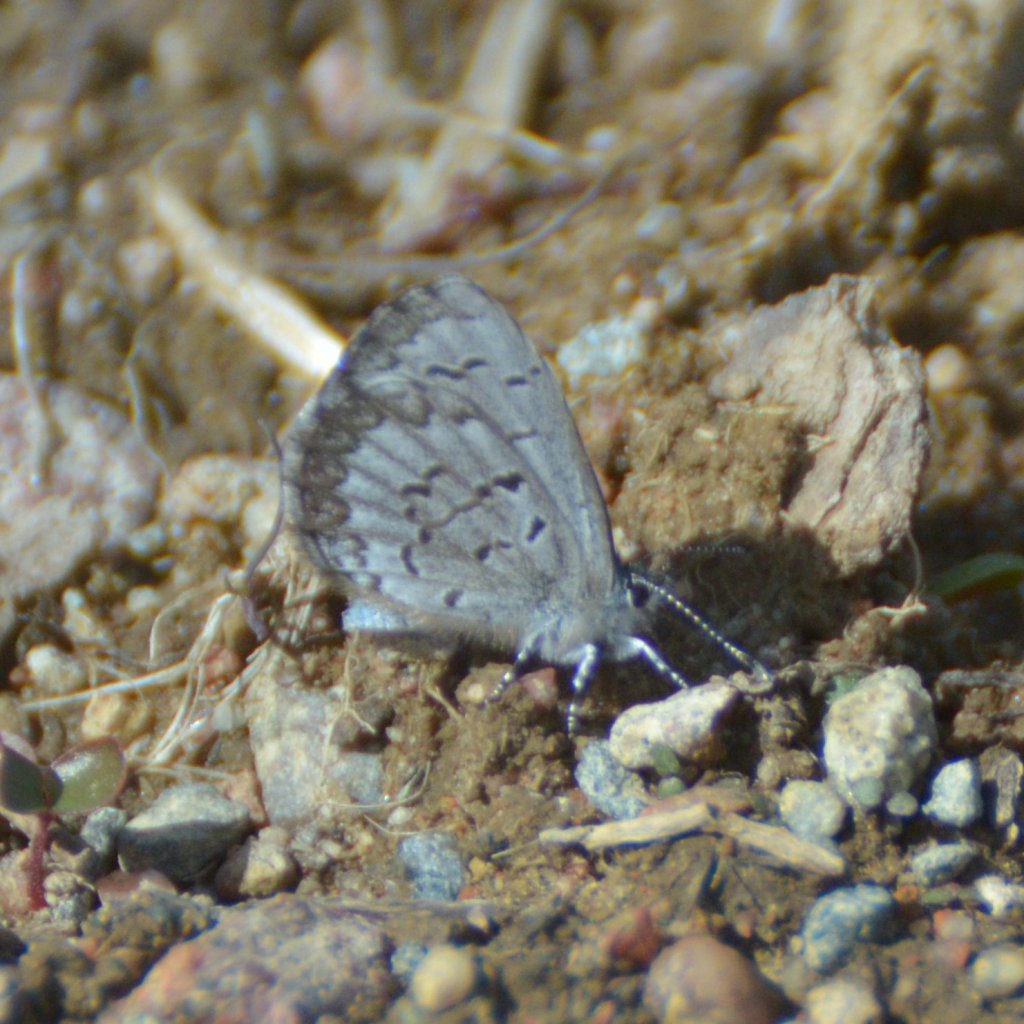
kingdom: Animalia
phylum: Arthropoda
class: Insecta
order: Lepidoptera
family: Lycaenidae
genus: Celastrina
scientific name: Celastrina lucia
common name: Northern Spring Azure
